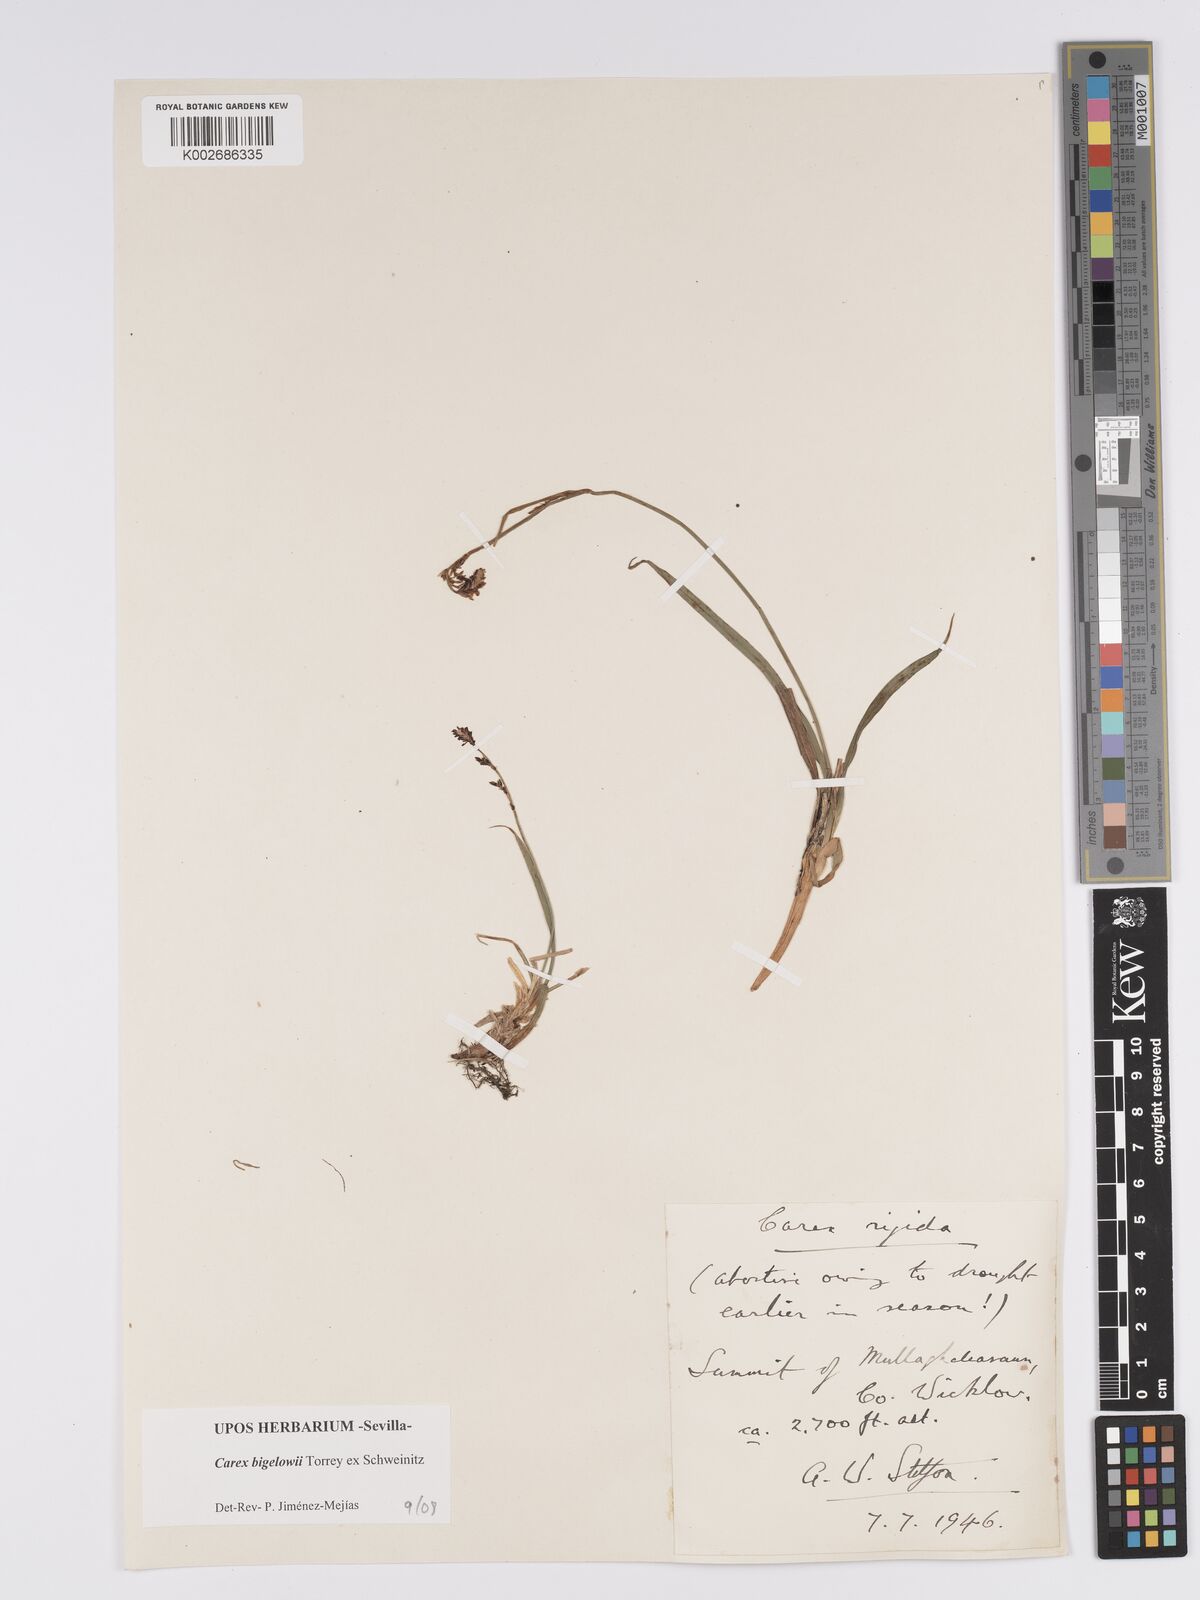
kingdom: Plantae
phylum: Tracheophyta
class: Liliopsida
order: Poales
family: Cyperaceae
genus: Carex
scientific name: Carex bigelowii
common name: Stiff sedge
